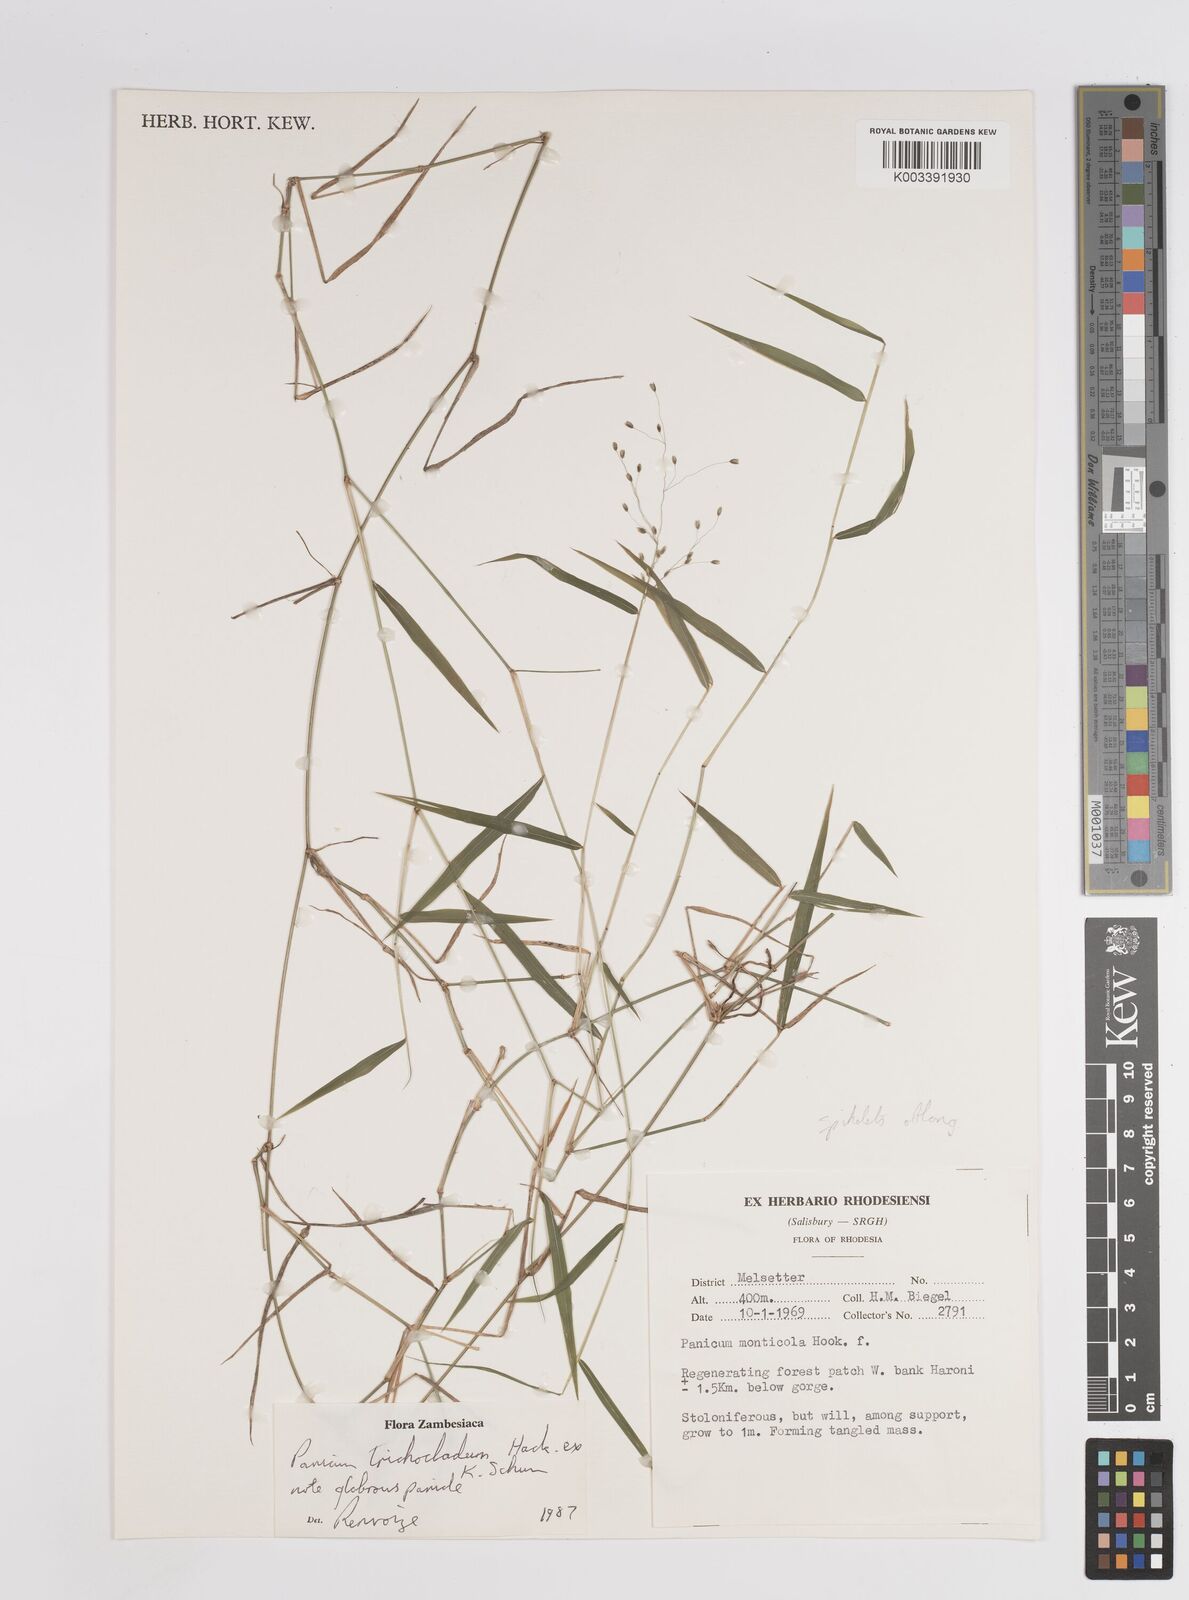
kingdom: Plantae
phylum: Tracheophyta
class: Liliopsida
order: Poales
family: Poaceae
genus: Panicum
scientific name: Panicum trichocladum
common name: Donkey grass
